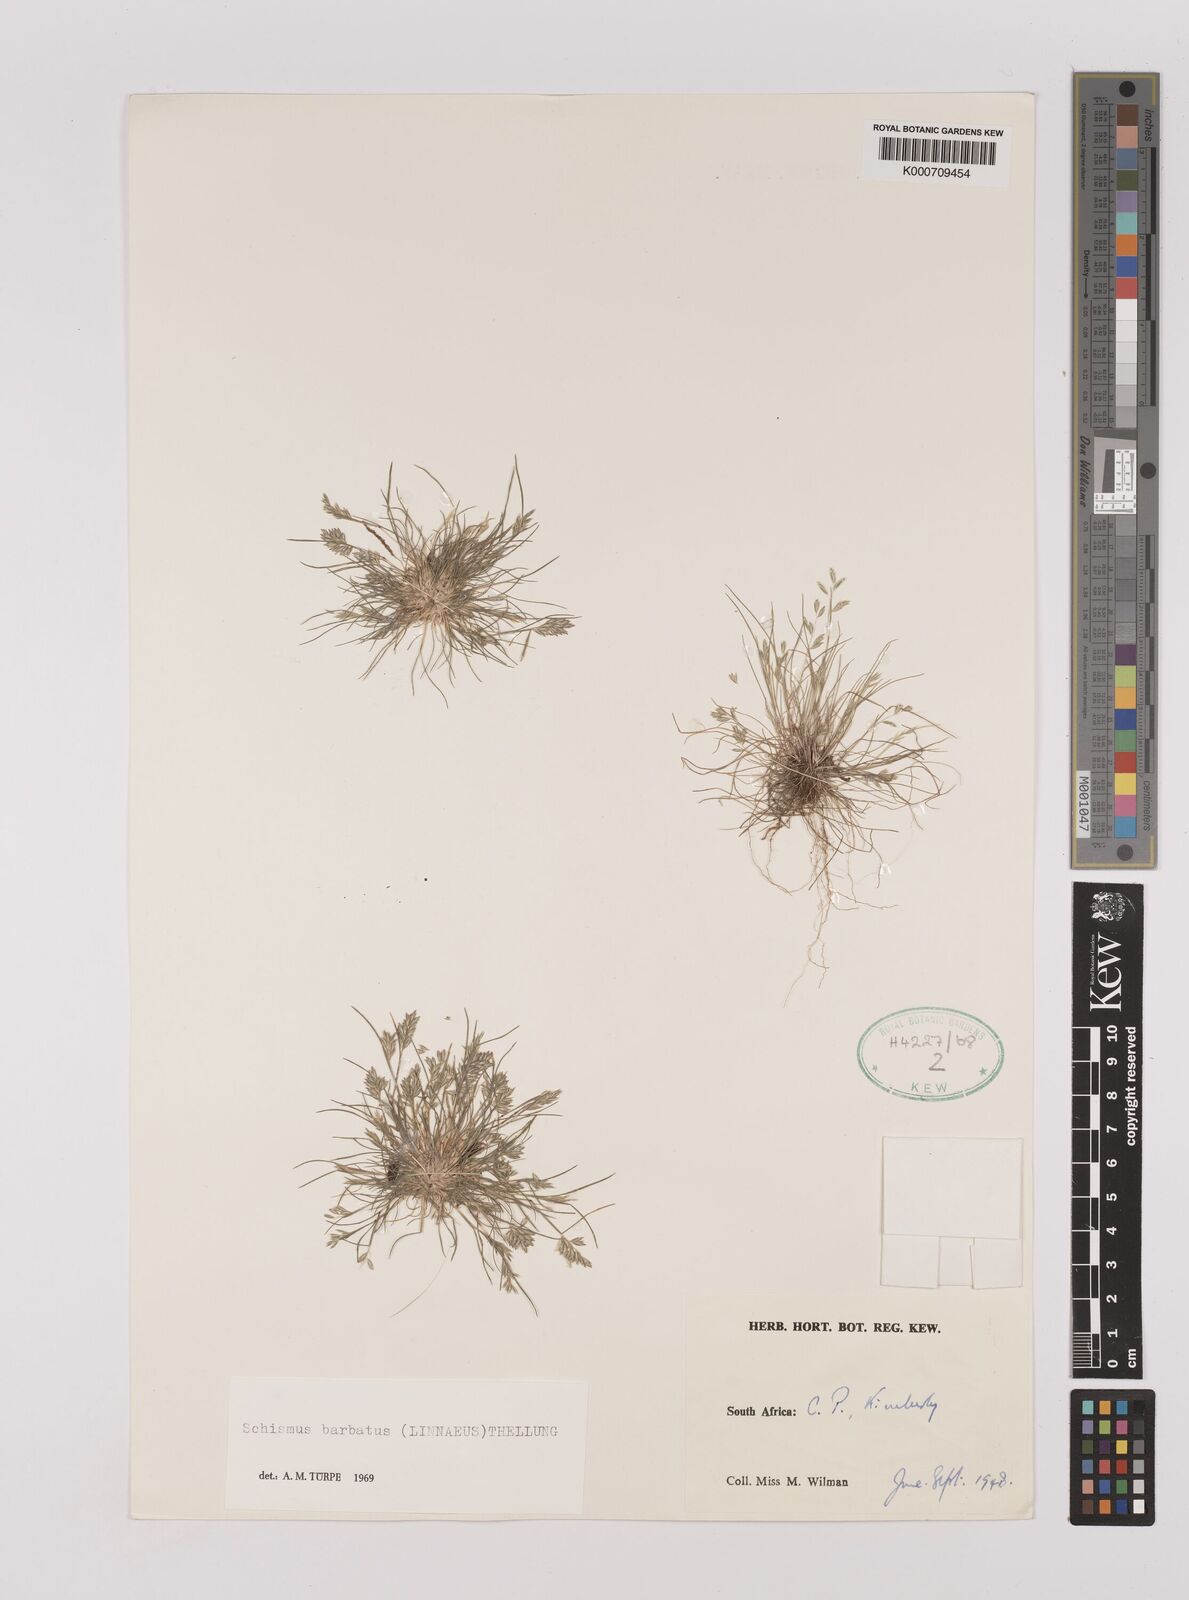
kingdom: Plantae
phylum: Tracheophyta
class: Liliopsida
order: Poales
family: Poaceae
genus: Schismus
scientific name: Schismus barbatus
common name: Kelch-grass
